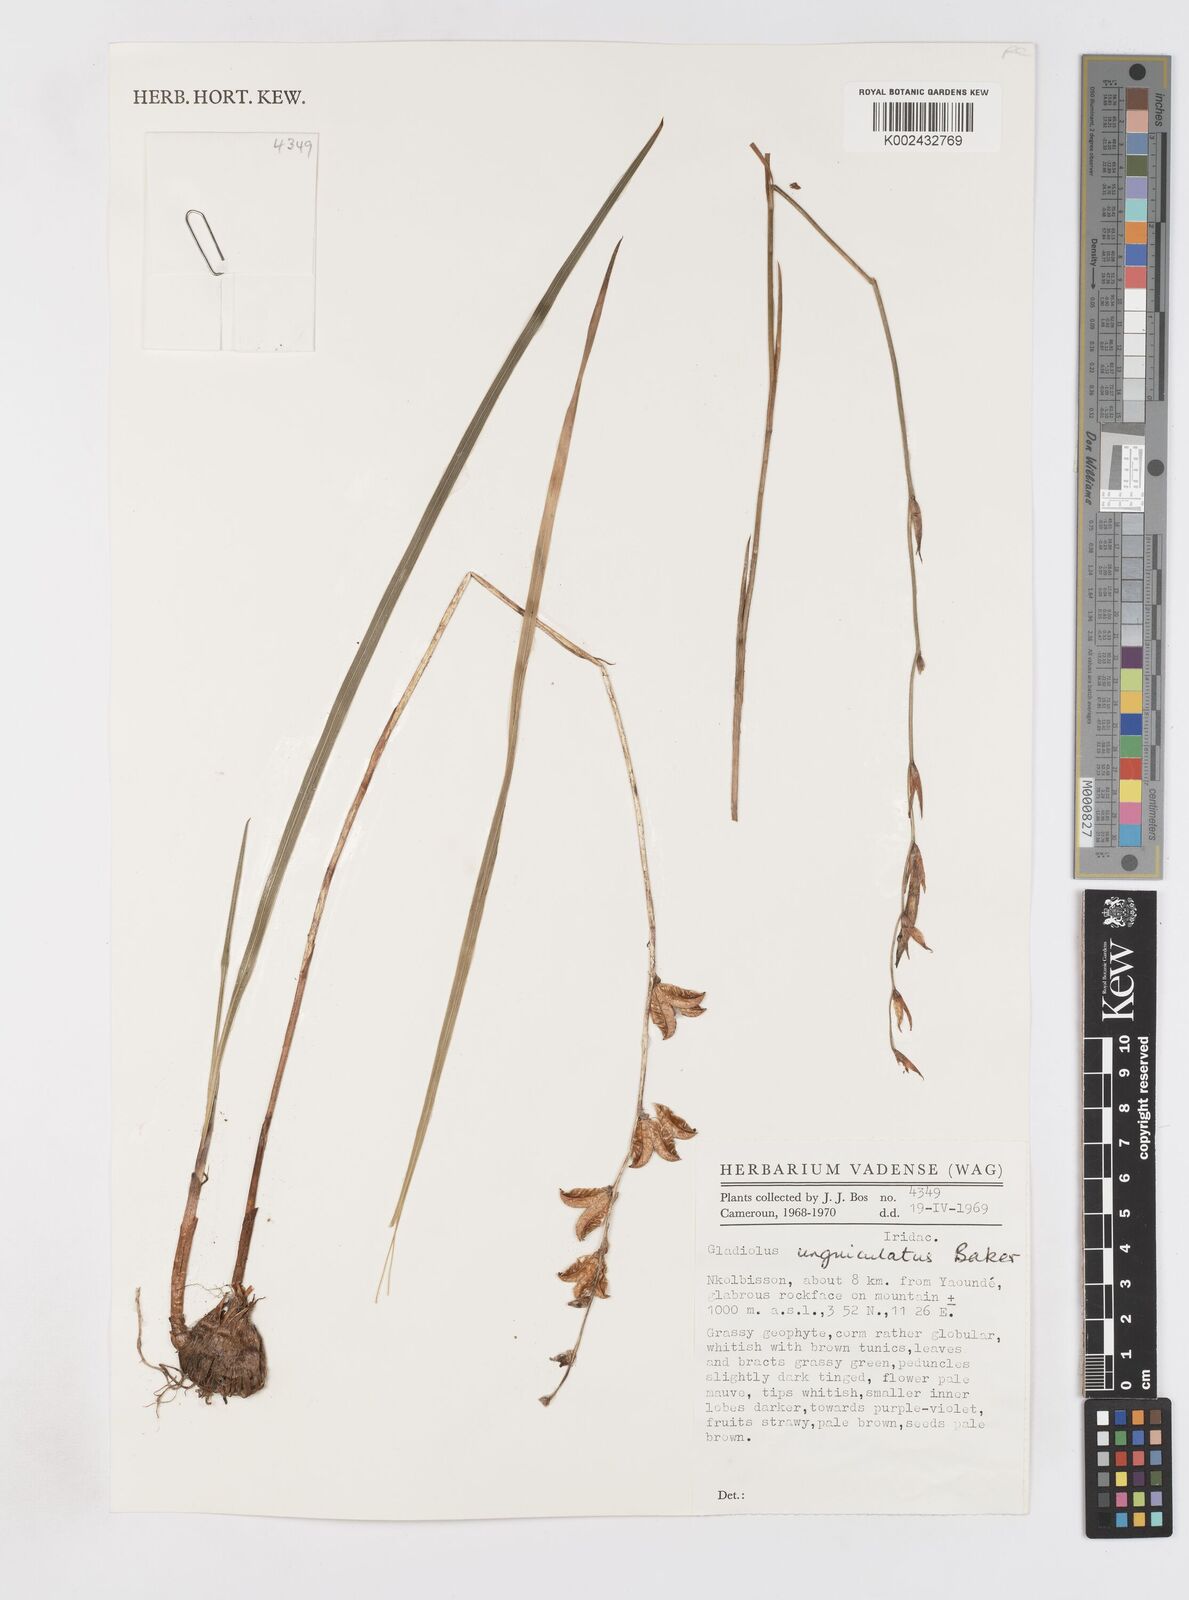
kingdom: Plantae
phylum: Tracheophyta
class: Liliopsida
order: Asparagales
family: Iridaceae
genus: Gladiolus
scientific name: Gladiolus unguiculatus
